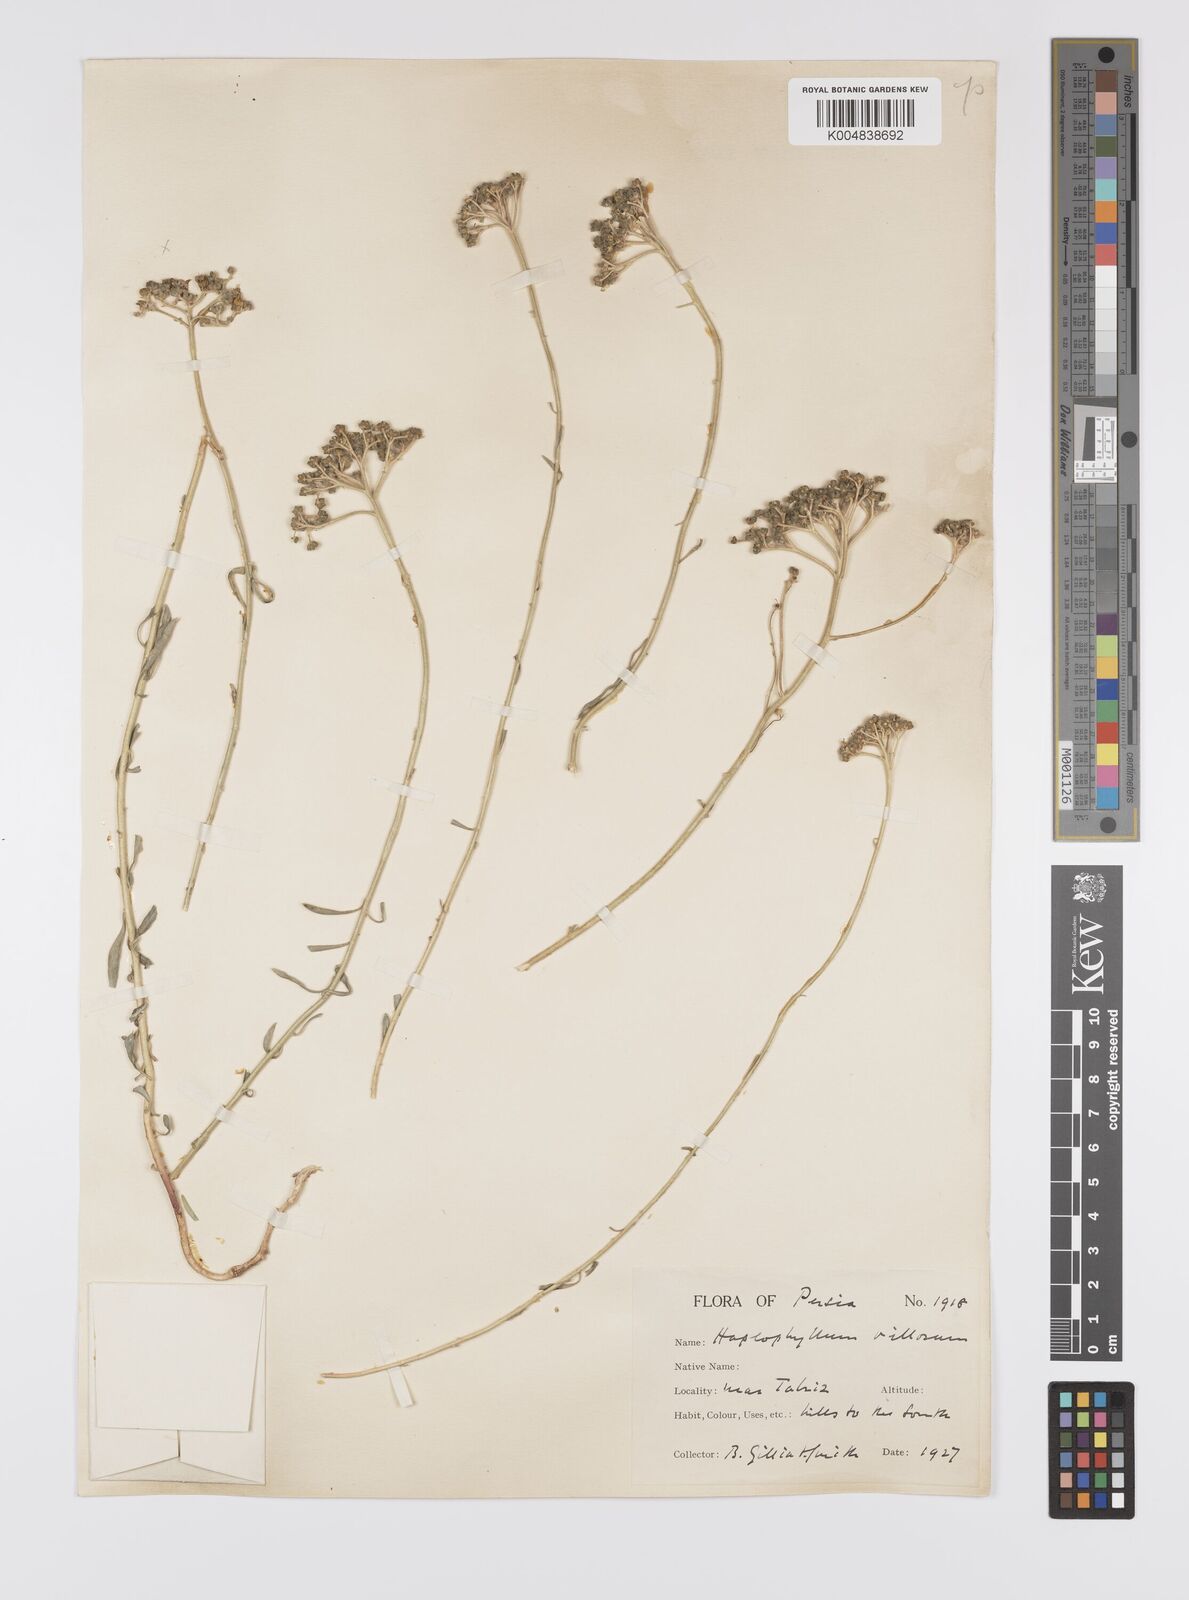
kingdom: Plantae
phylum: Tracheophyta
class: Magnoliopsida
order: Sapindales
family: Rutaceae
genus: Haplophyllum
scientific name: Haplophyllum villosum
